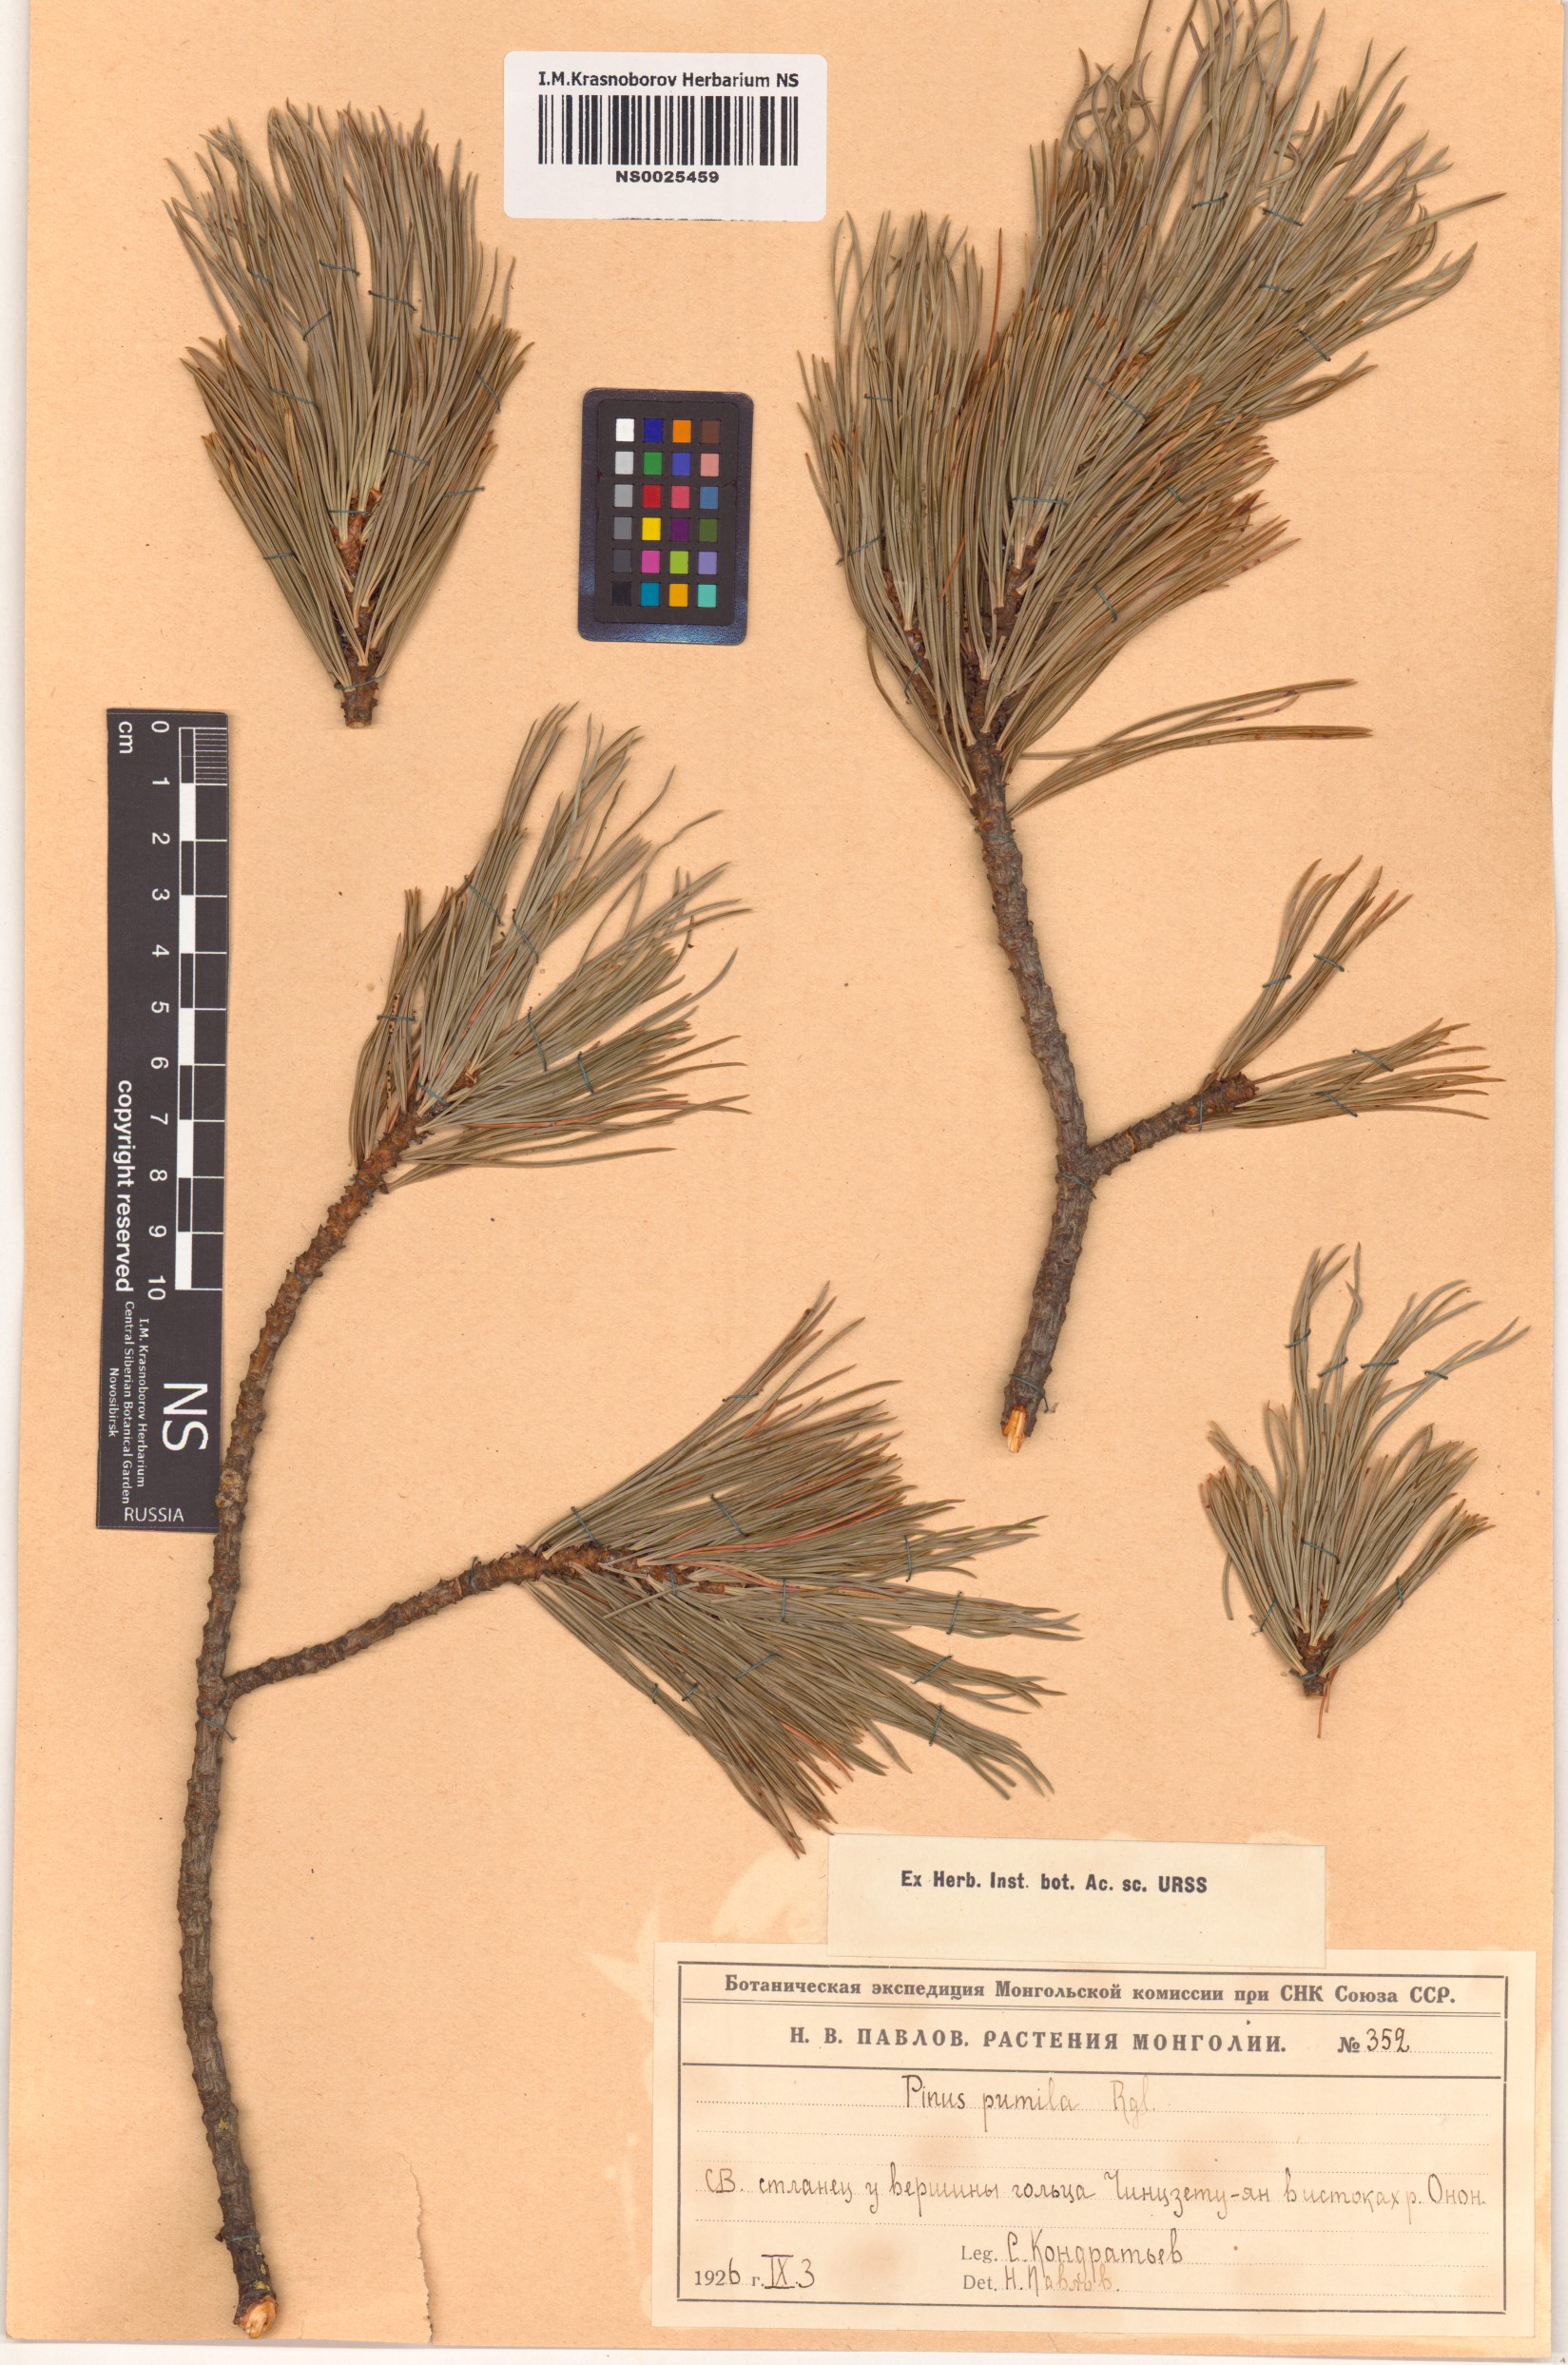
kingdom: Plantae
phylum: Tracheophyta
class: Pinopsida
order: Pinales
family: Pinaceae
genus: Pinus
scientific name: Pinus pumila
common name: Dwarf siberian pine
